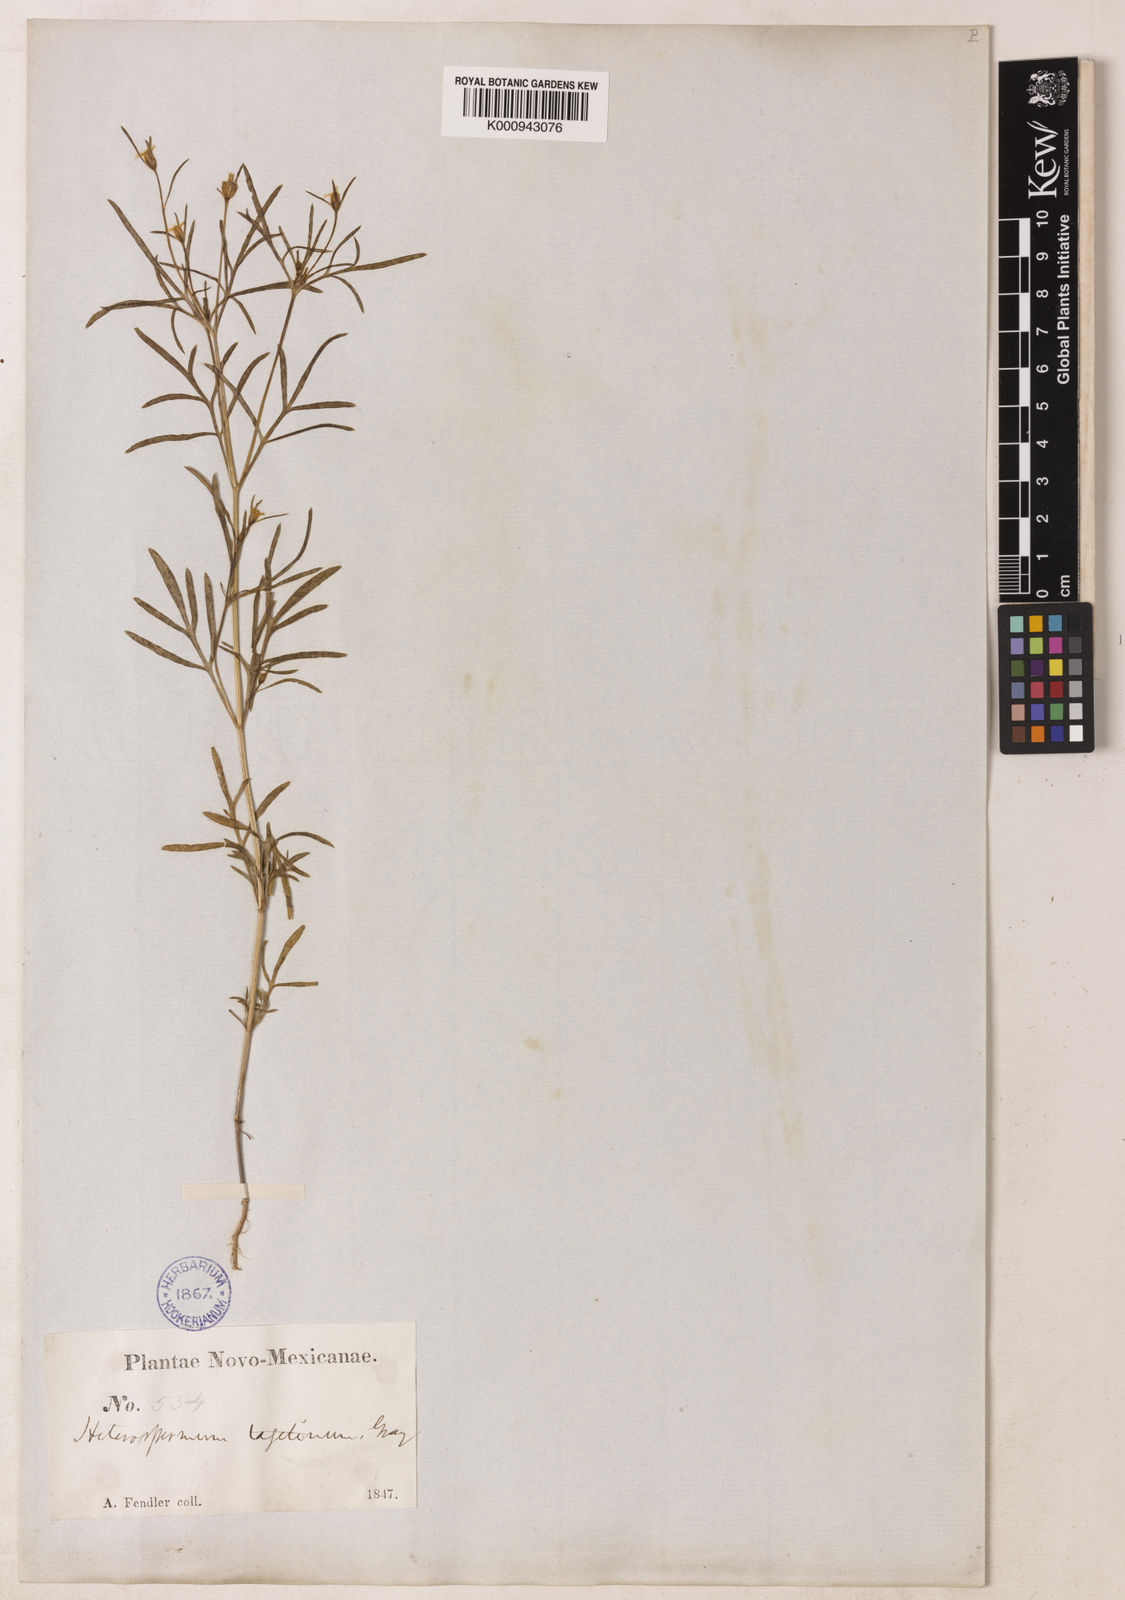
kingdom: Plantae
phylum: Tracheophyta
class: Magnoliopsida
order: Asterales
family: Asteraceae
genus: Heterosperma
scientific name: Heterosperma pinnatum
